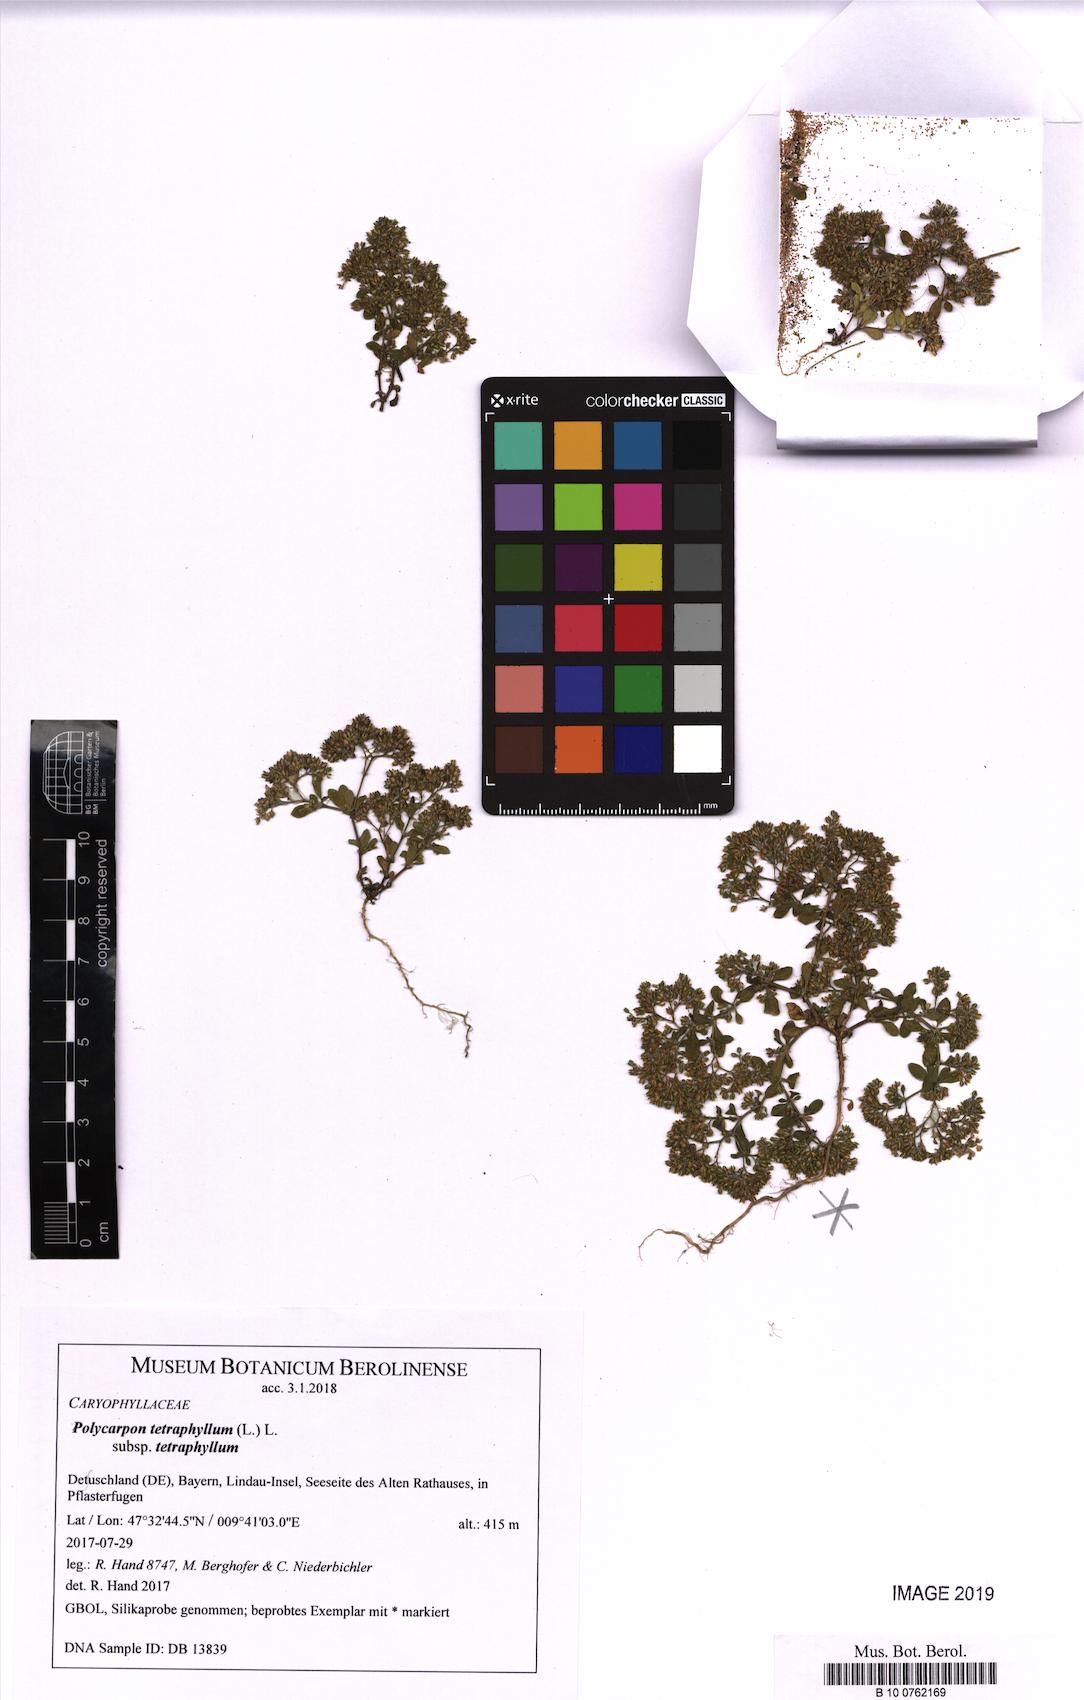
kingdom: Plantae
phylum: Tracheophyta
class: Magnoliopsida
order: Caryophyllales
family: Caryophyllaceae
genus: Polycarpon
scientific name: Polycarpon tetraphyllum
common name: Four-leaved all-seed
